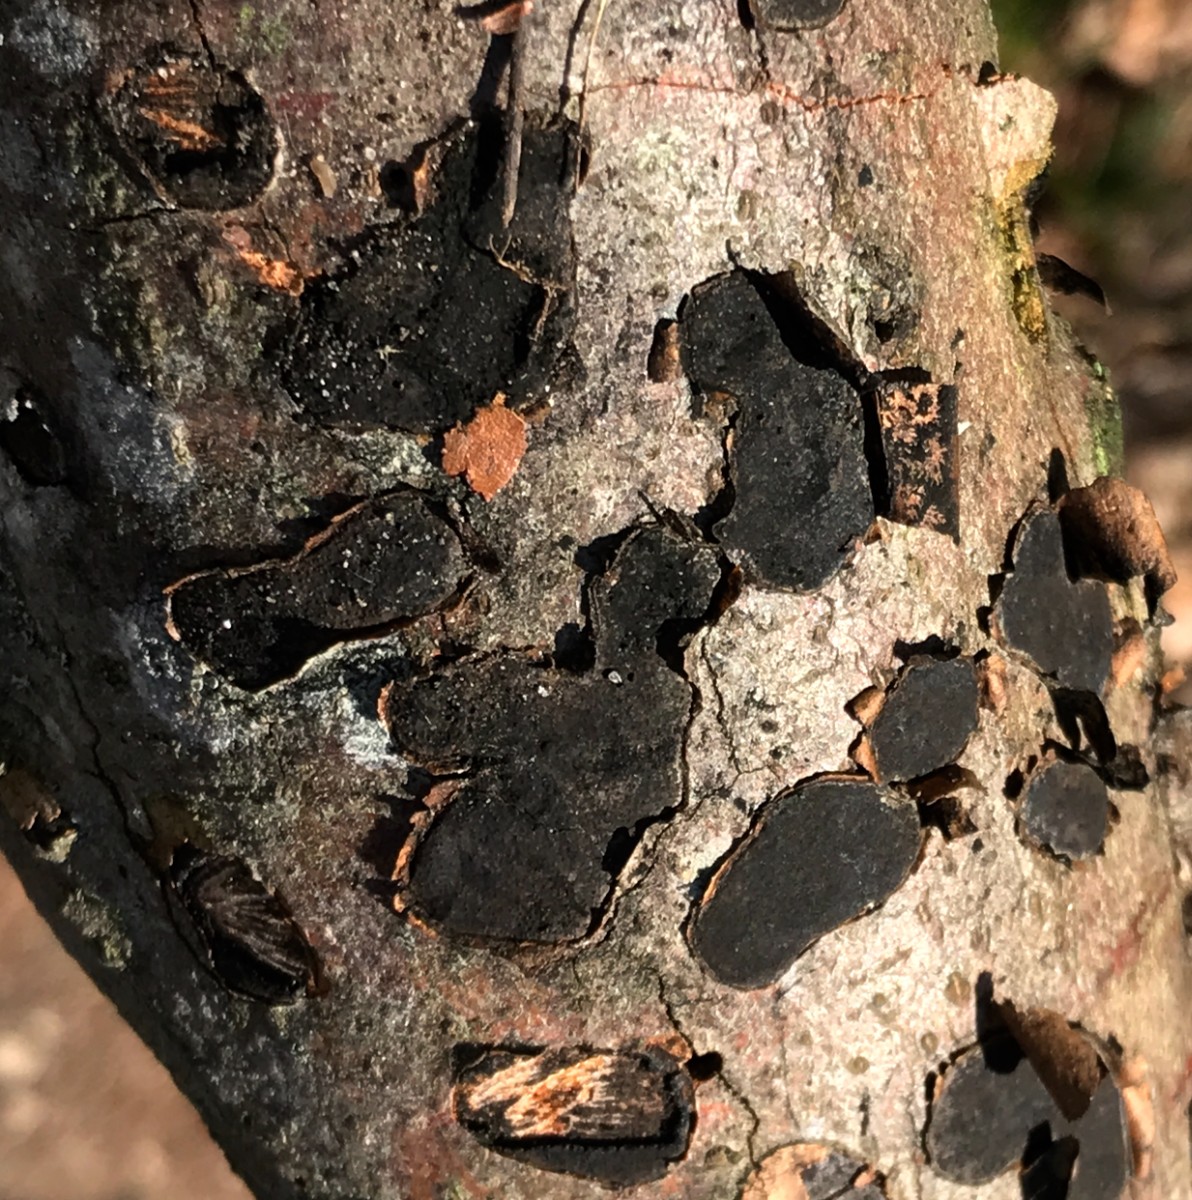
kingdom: Fungi
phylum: Ascomycota
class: Sordariomycetes
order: Xylariales
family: Graphostromataceae
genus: Biscogniauxia
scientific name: Biscogniauxia nummularia
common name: bøge-kulskive
